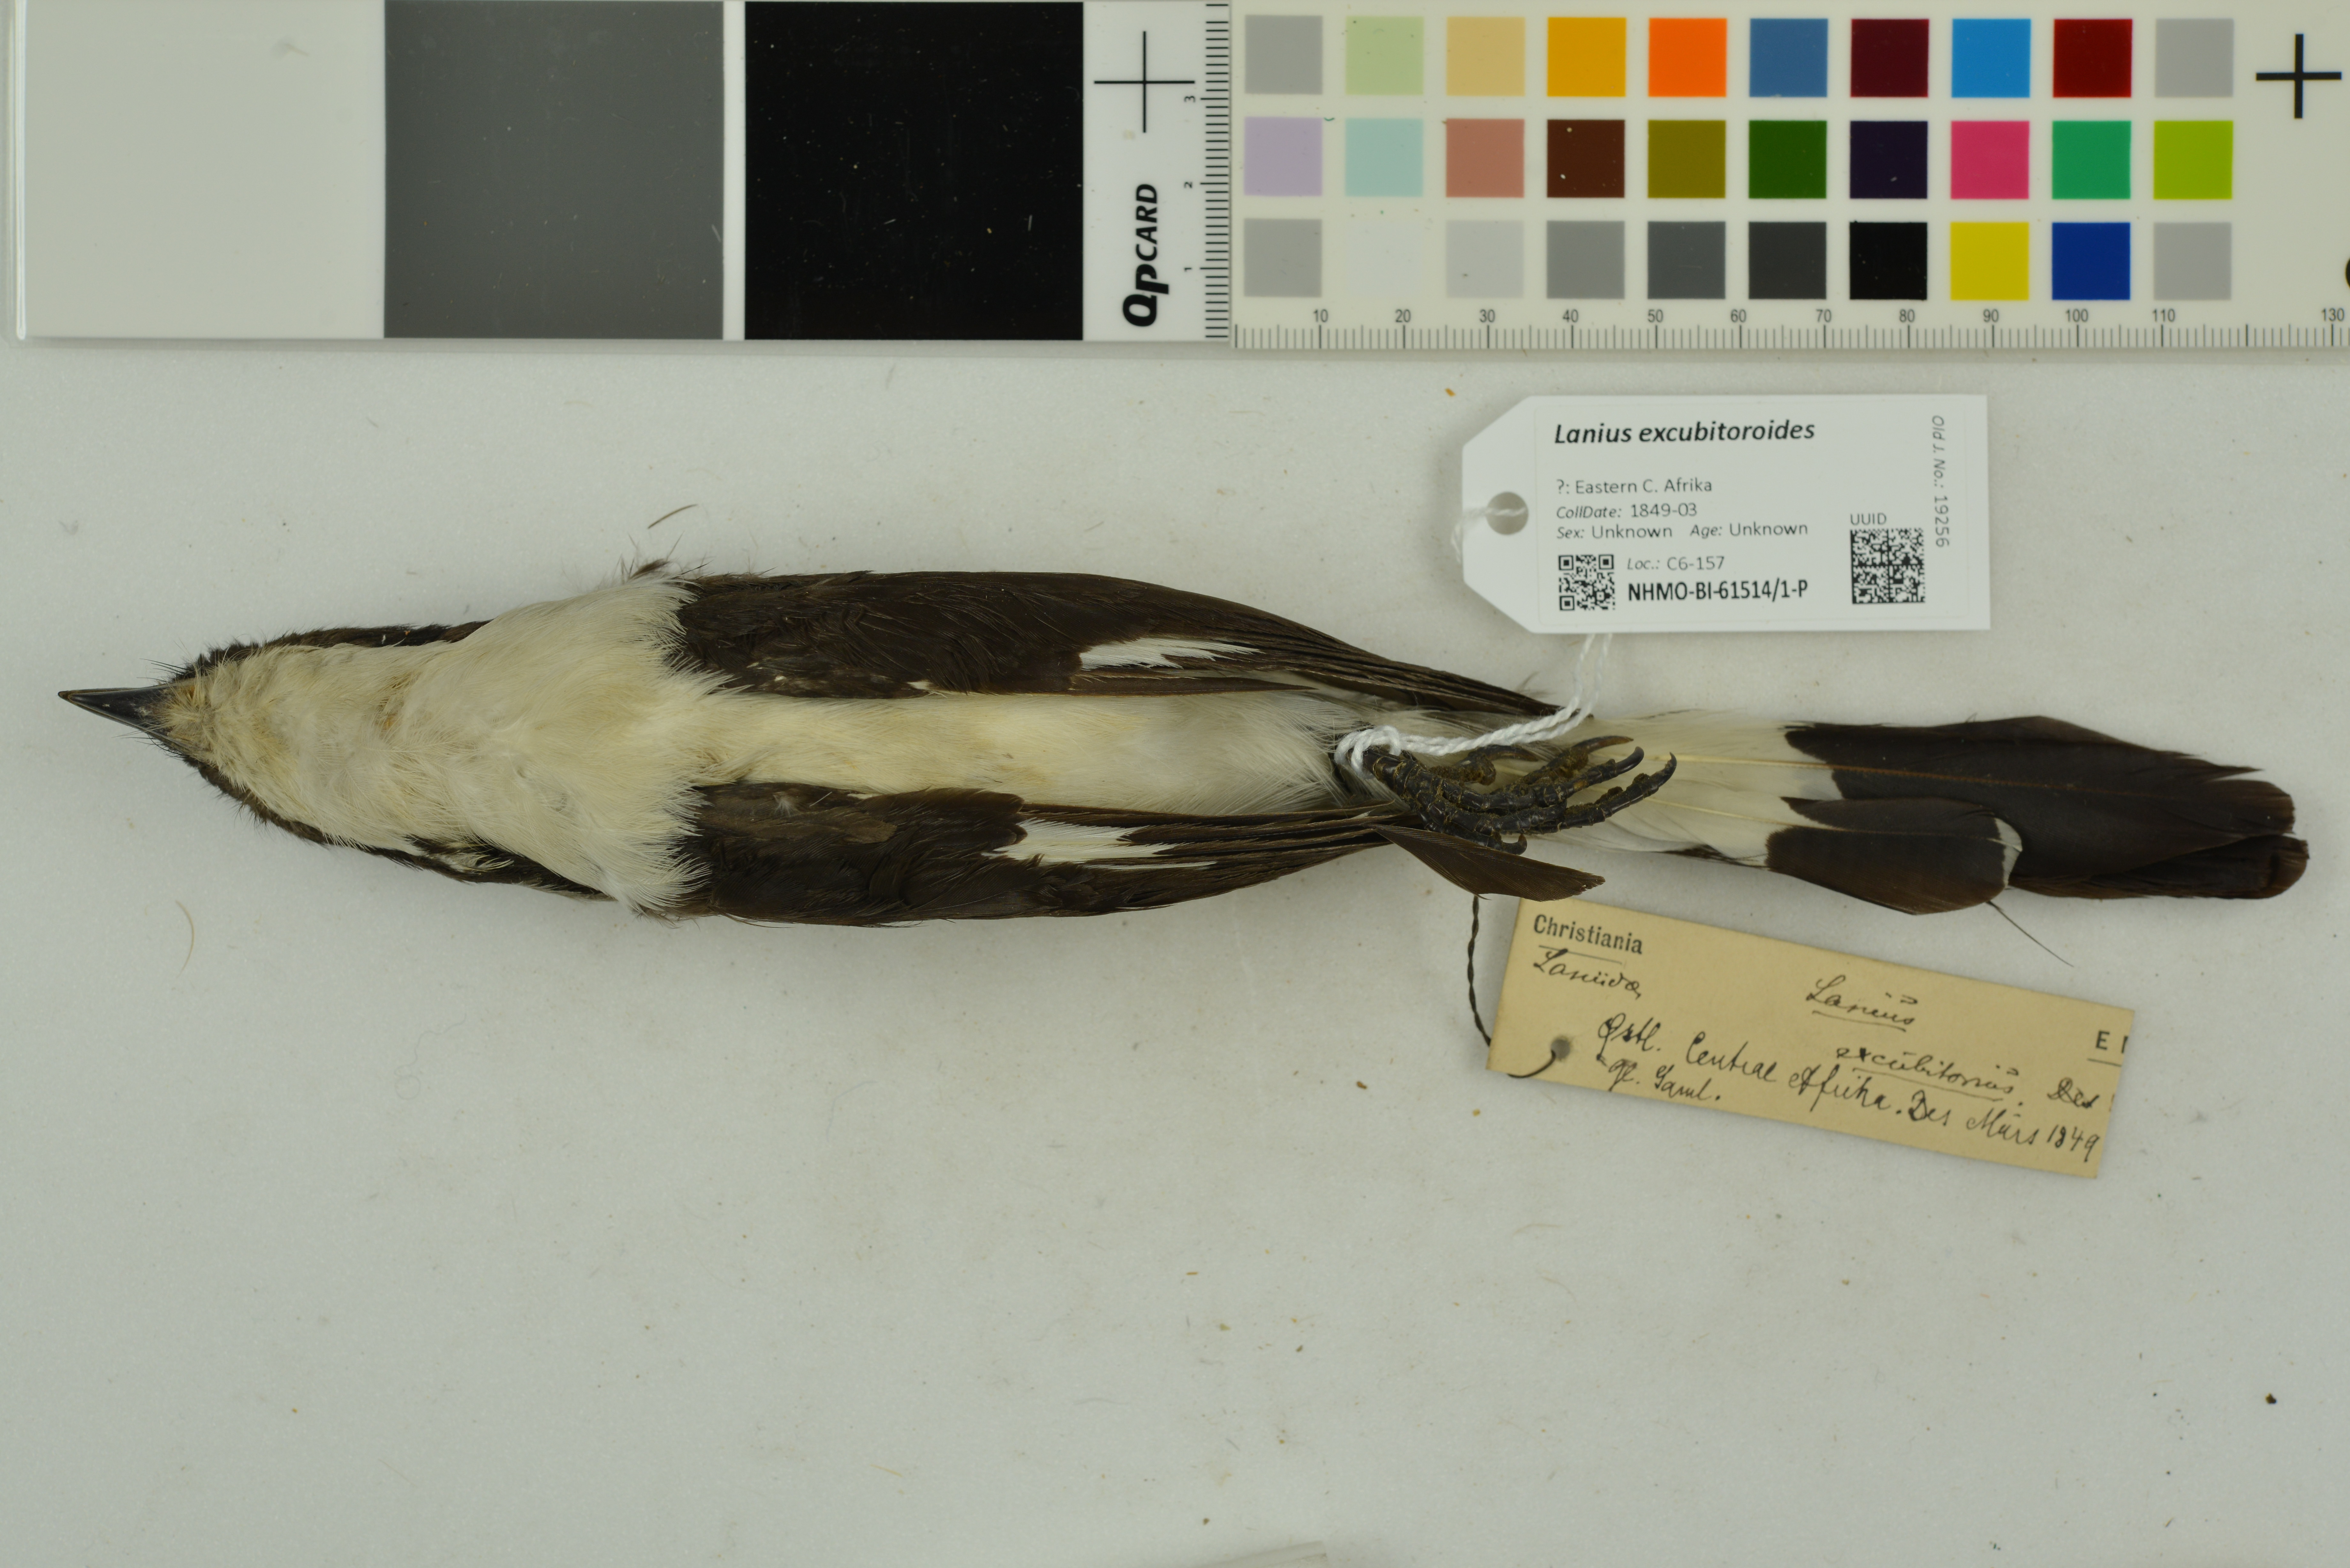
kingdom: Animalia
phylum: Chordata
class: Aves
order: Passeriformes
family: Laniidae
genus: Lanius
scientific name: Lanius excubitoroides
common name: Grey-backed fiscal
